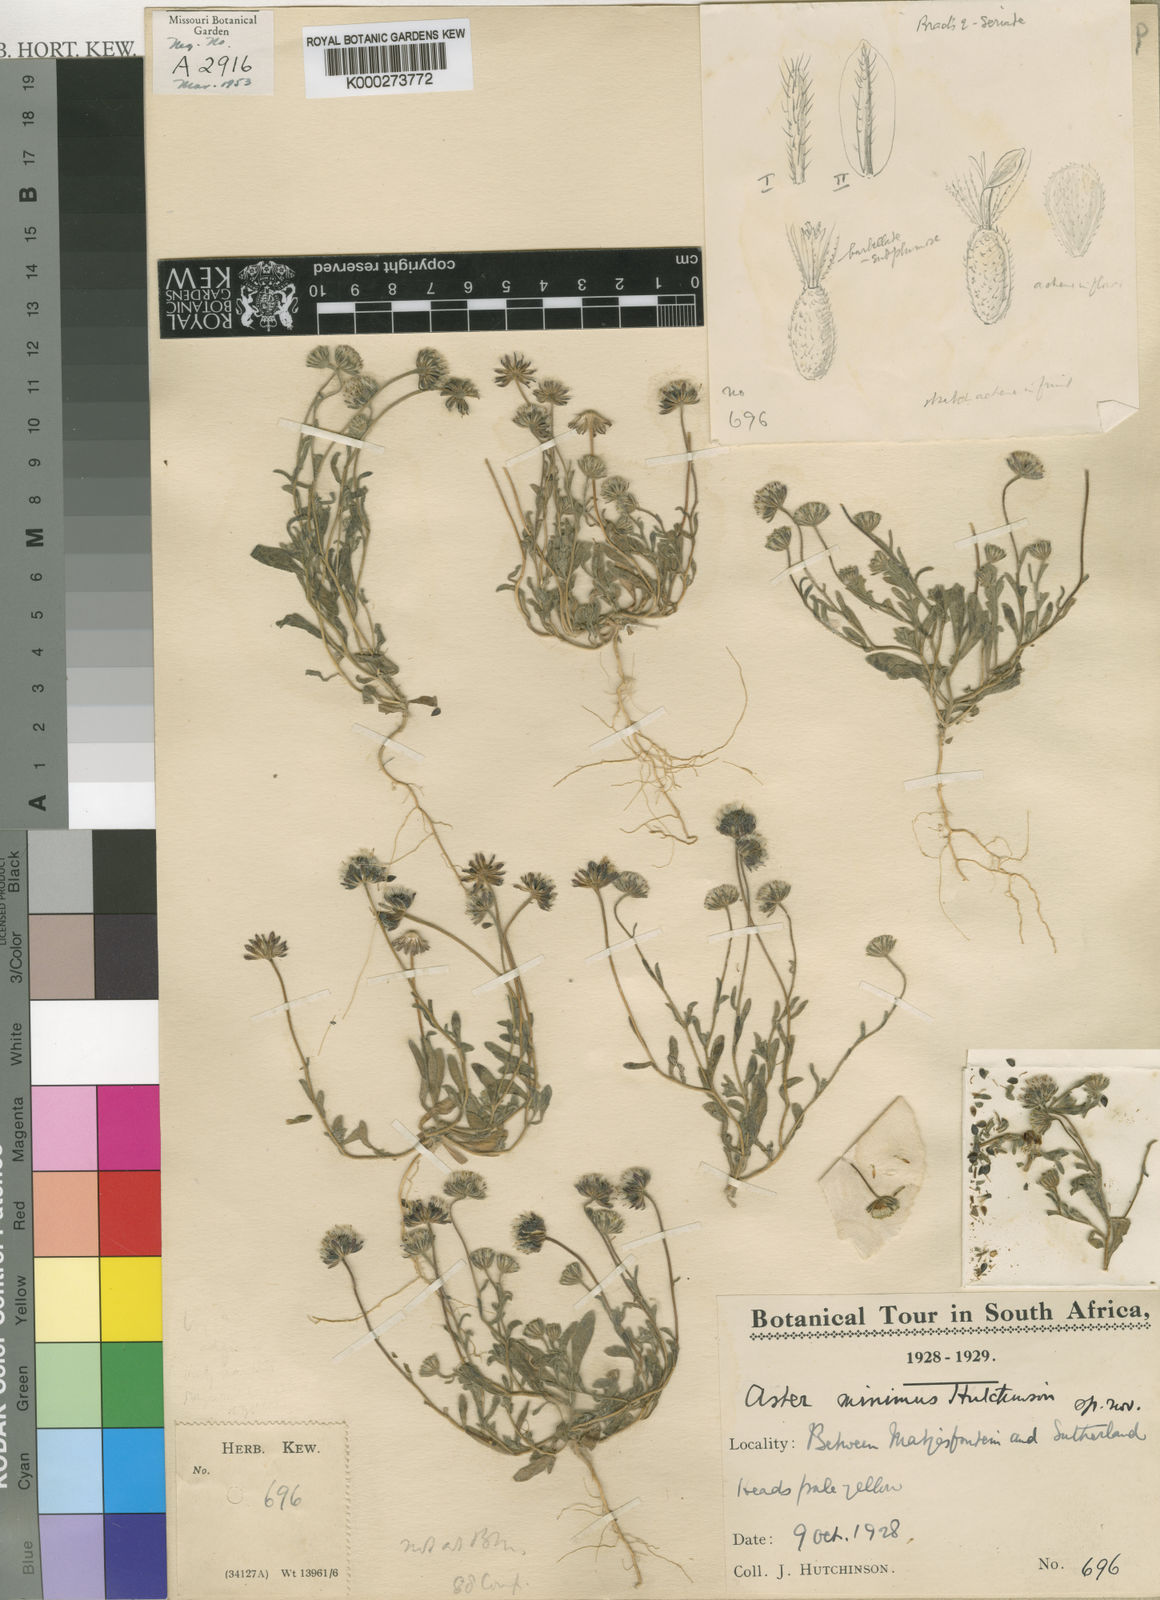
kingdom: Plantae
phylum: Tracheophyta
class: Magnoliopsida
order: Asterales
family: Asteraceae
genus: Felicia
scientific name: Felicia minima
